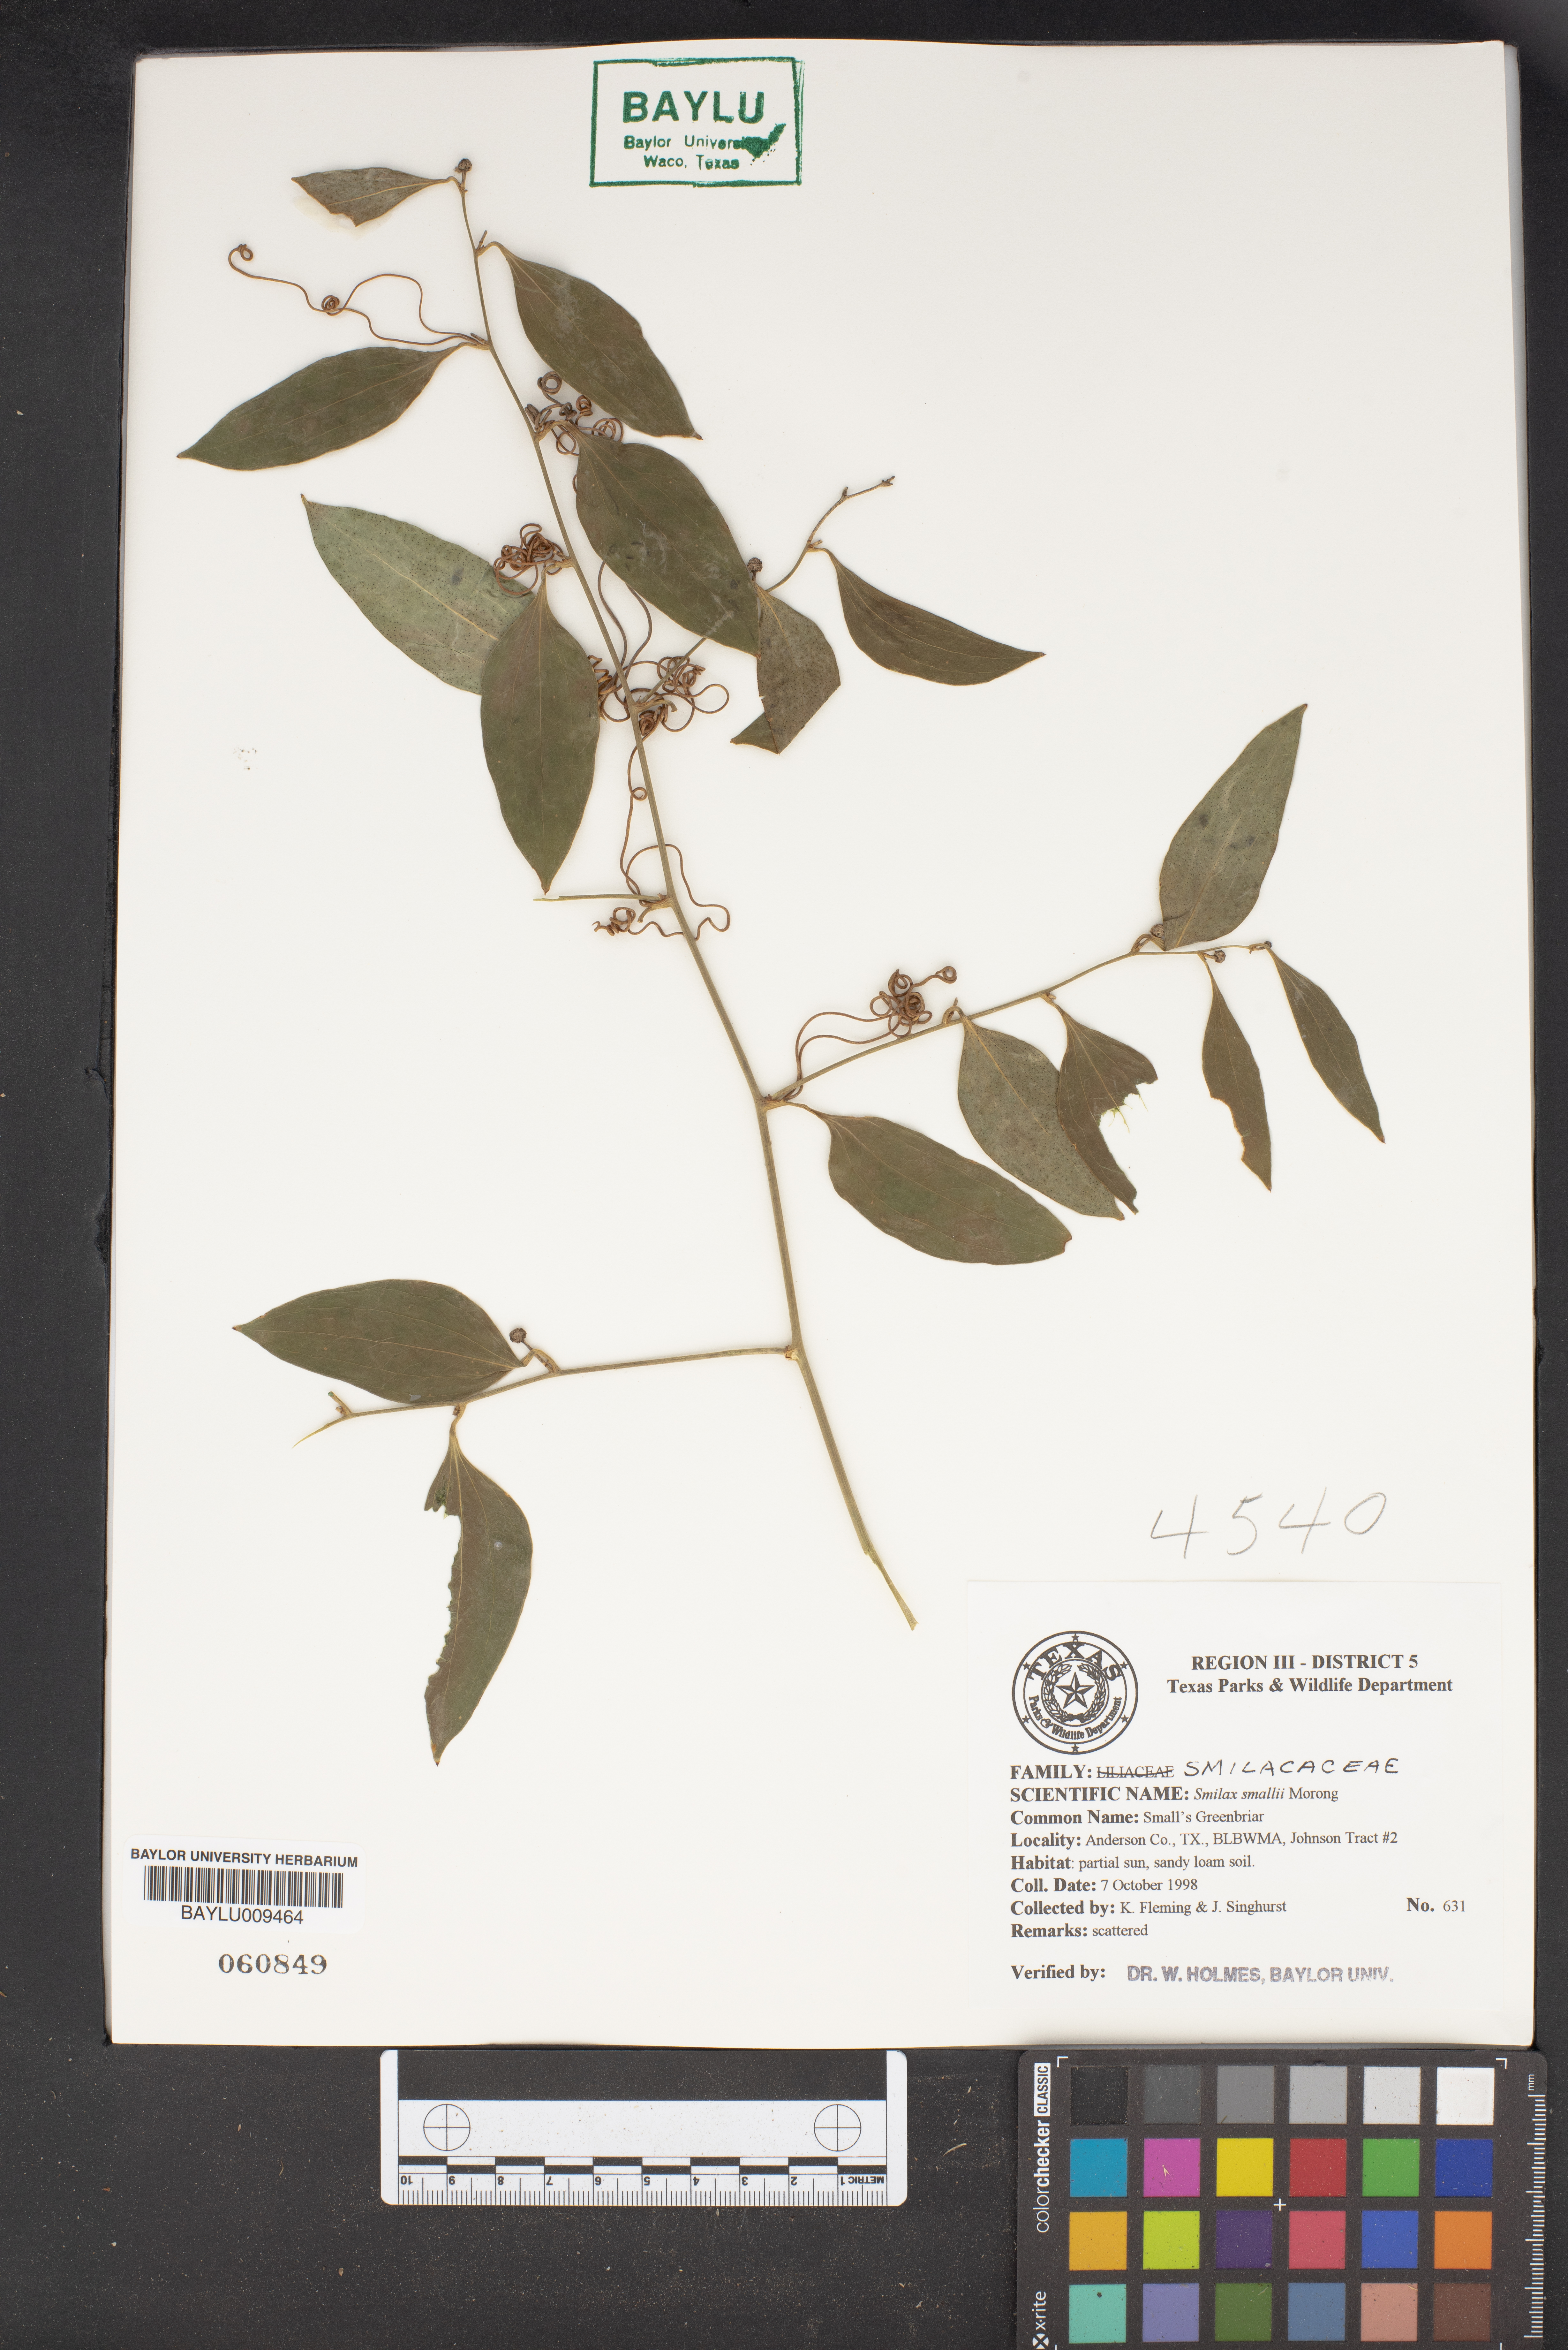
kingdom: Plantae
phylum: Tracheophyta
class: Liliopsida
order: Liliales
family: Smilacaceae
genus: Smilax
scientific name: Smilax maritima
